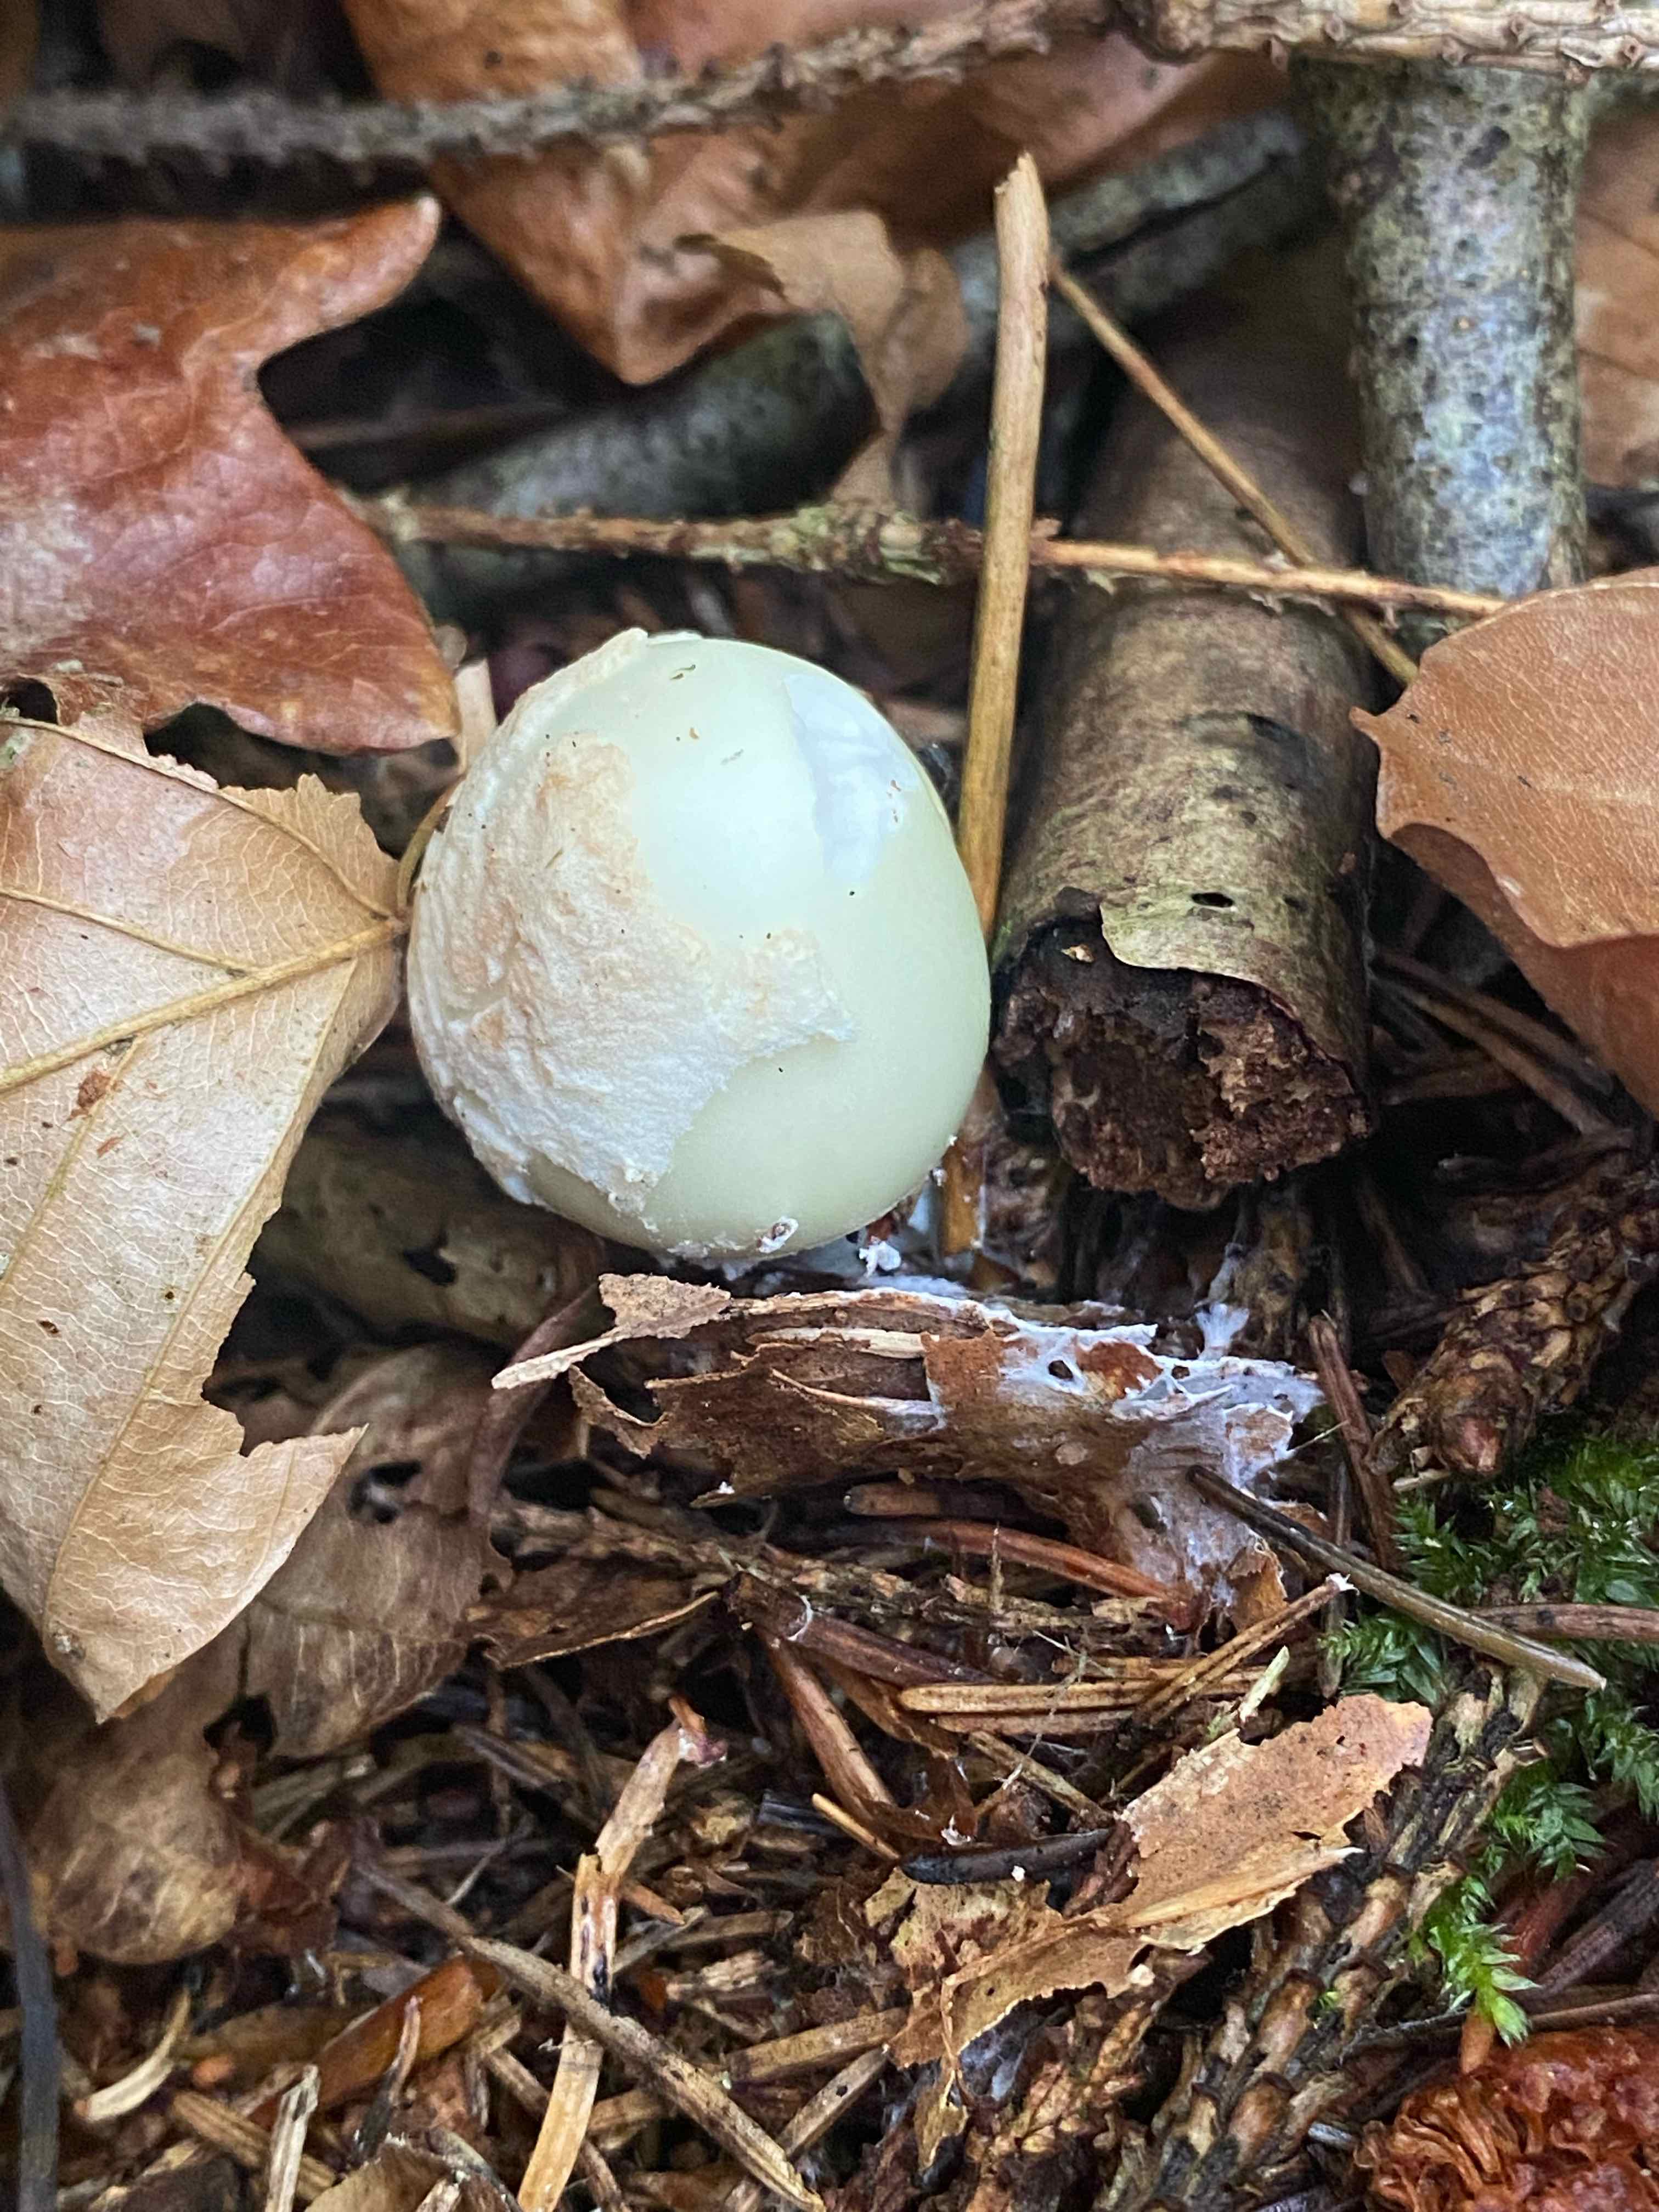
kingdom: Fungi
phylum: Basidiomycota
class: Agaricomycetes
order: Agaricales
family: Amanitaceae
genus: Amanita
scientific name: Amanita citrina
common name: kugleknoldet fluesvamp
